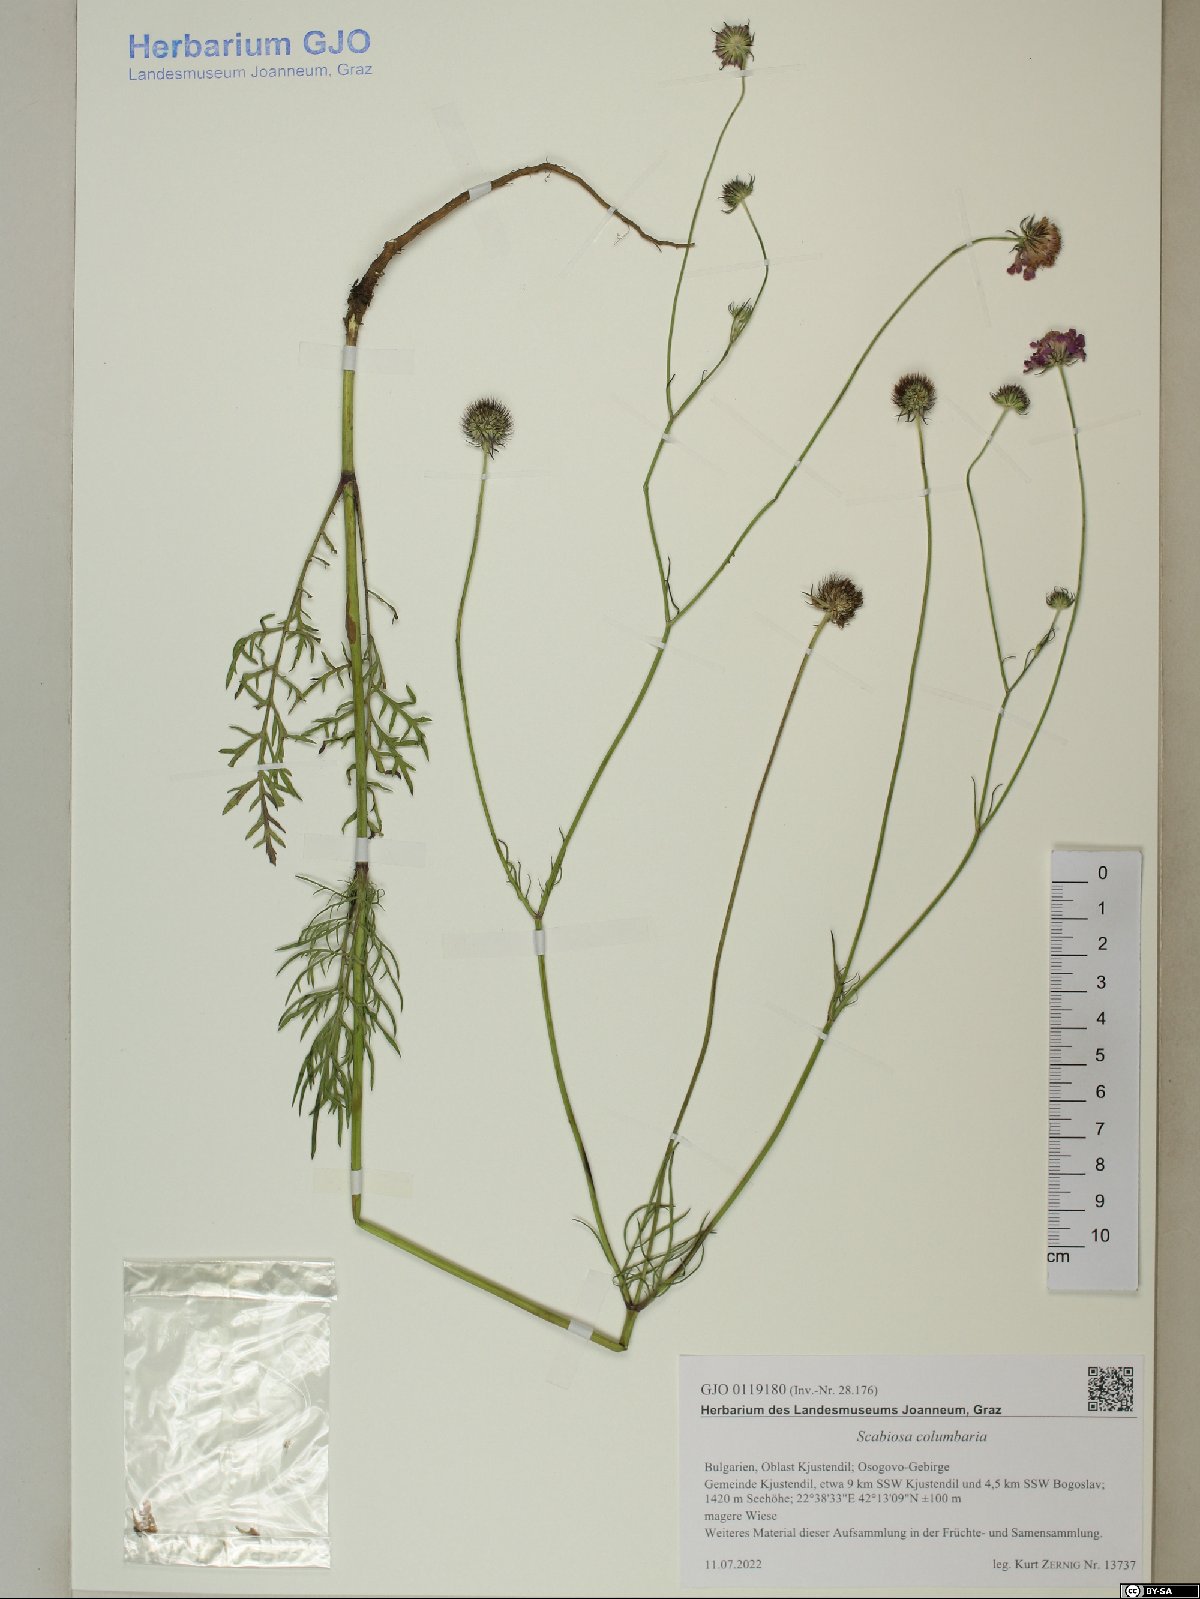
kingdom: Plantae
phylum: Tracheophyta
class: Magnoliopsida
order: Dipsacales
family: Caprifoliaceae
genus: Scabiosa
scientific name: Scabiosa columbaria
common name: Small scabious
